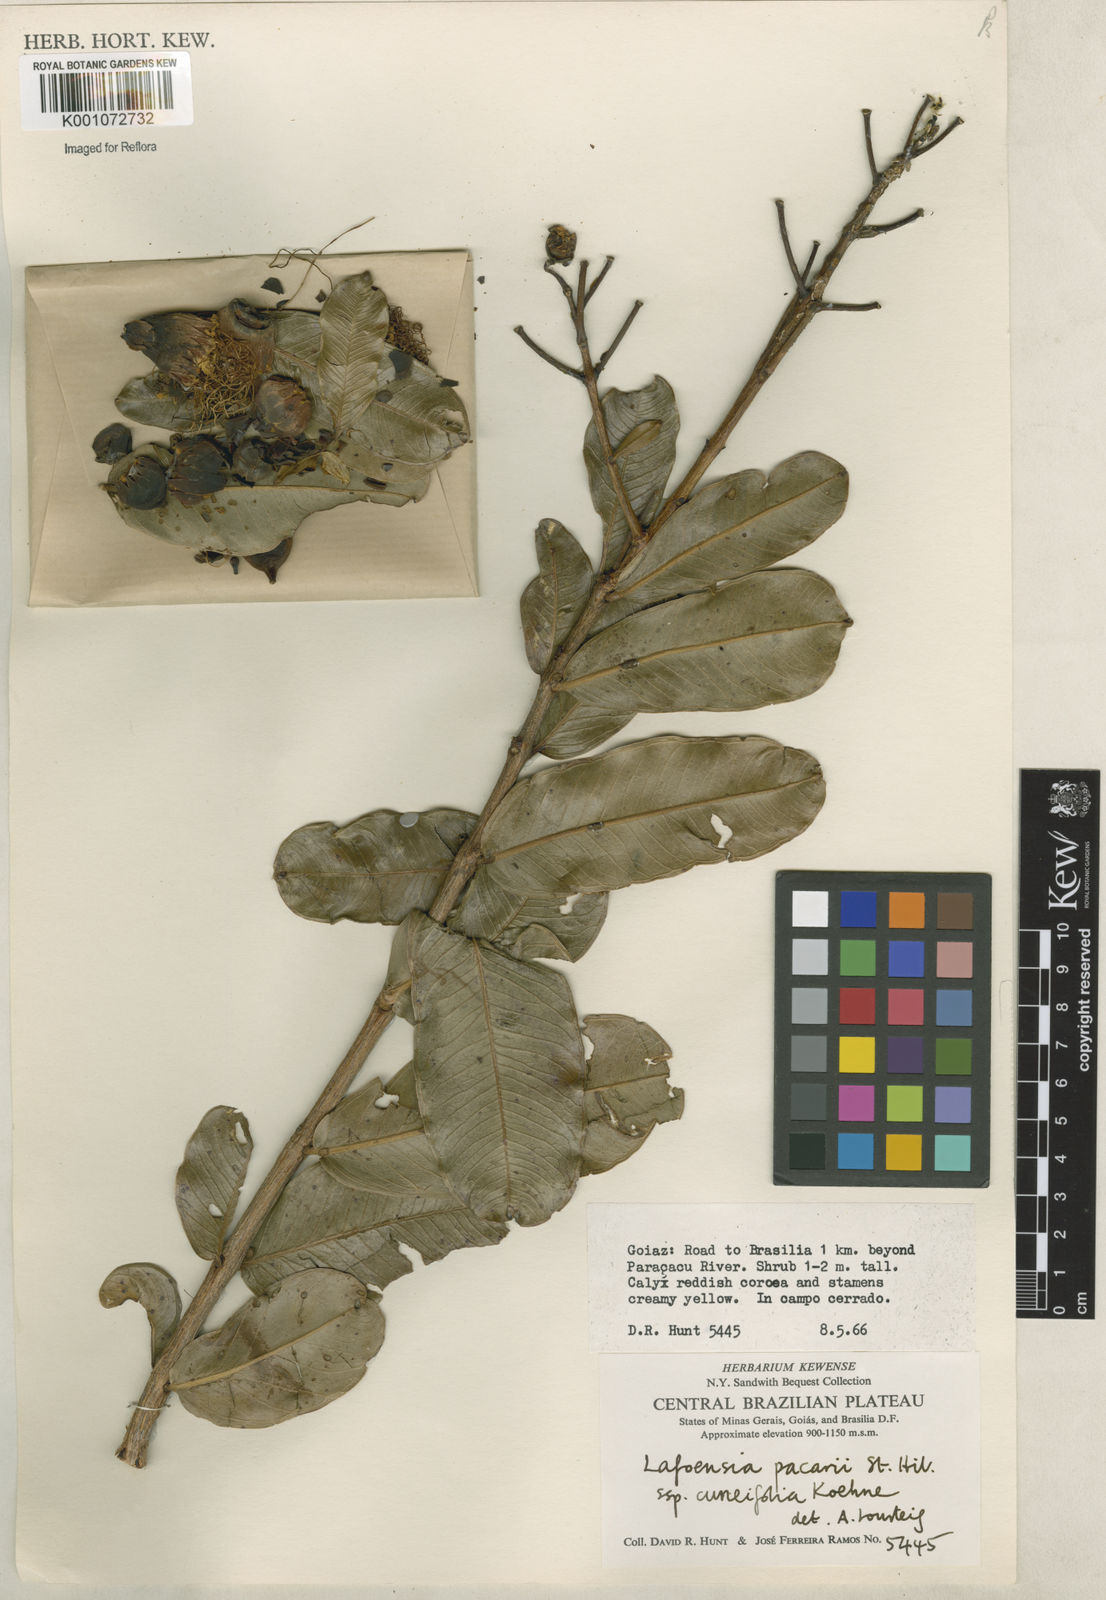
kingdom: Plantae
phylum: Tracheophyta
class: Magnoliopsida
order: Myrtales
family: Lythraceae
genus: Lafoensia
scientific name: Lafoensia pacari
